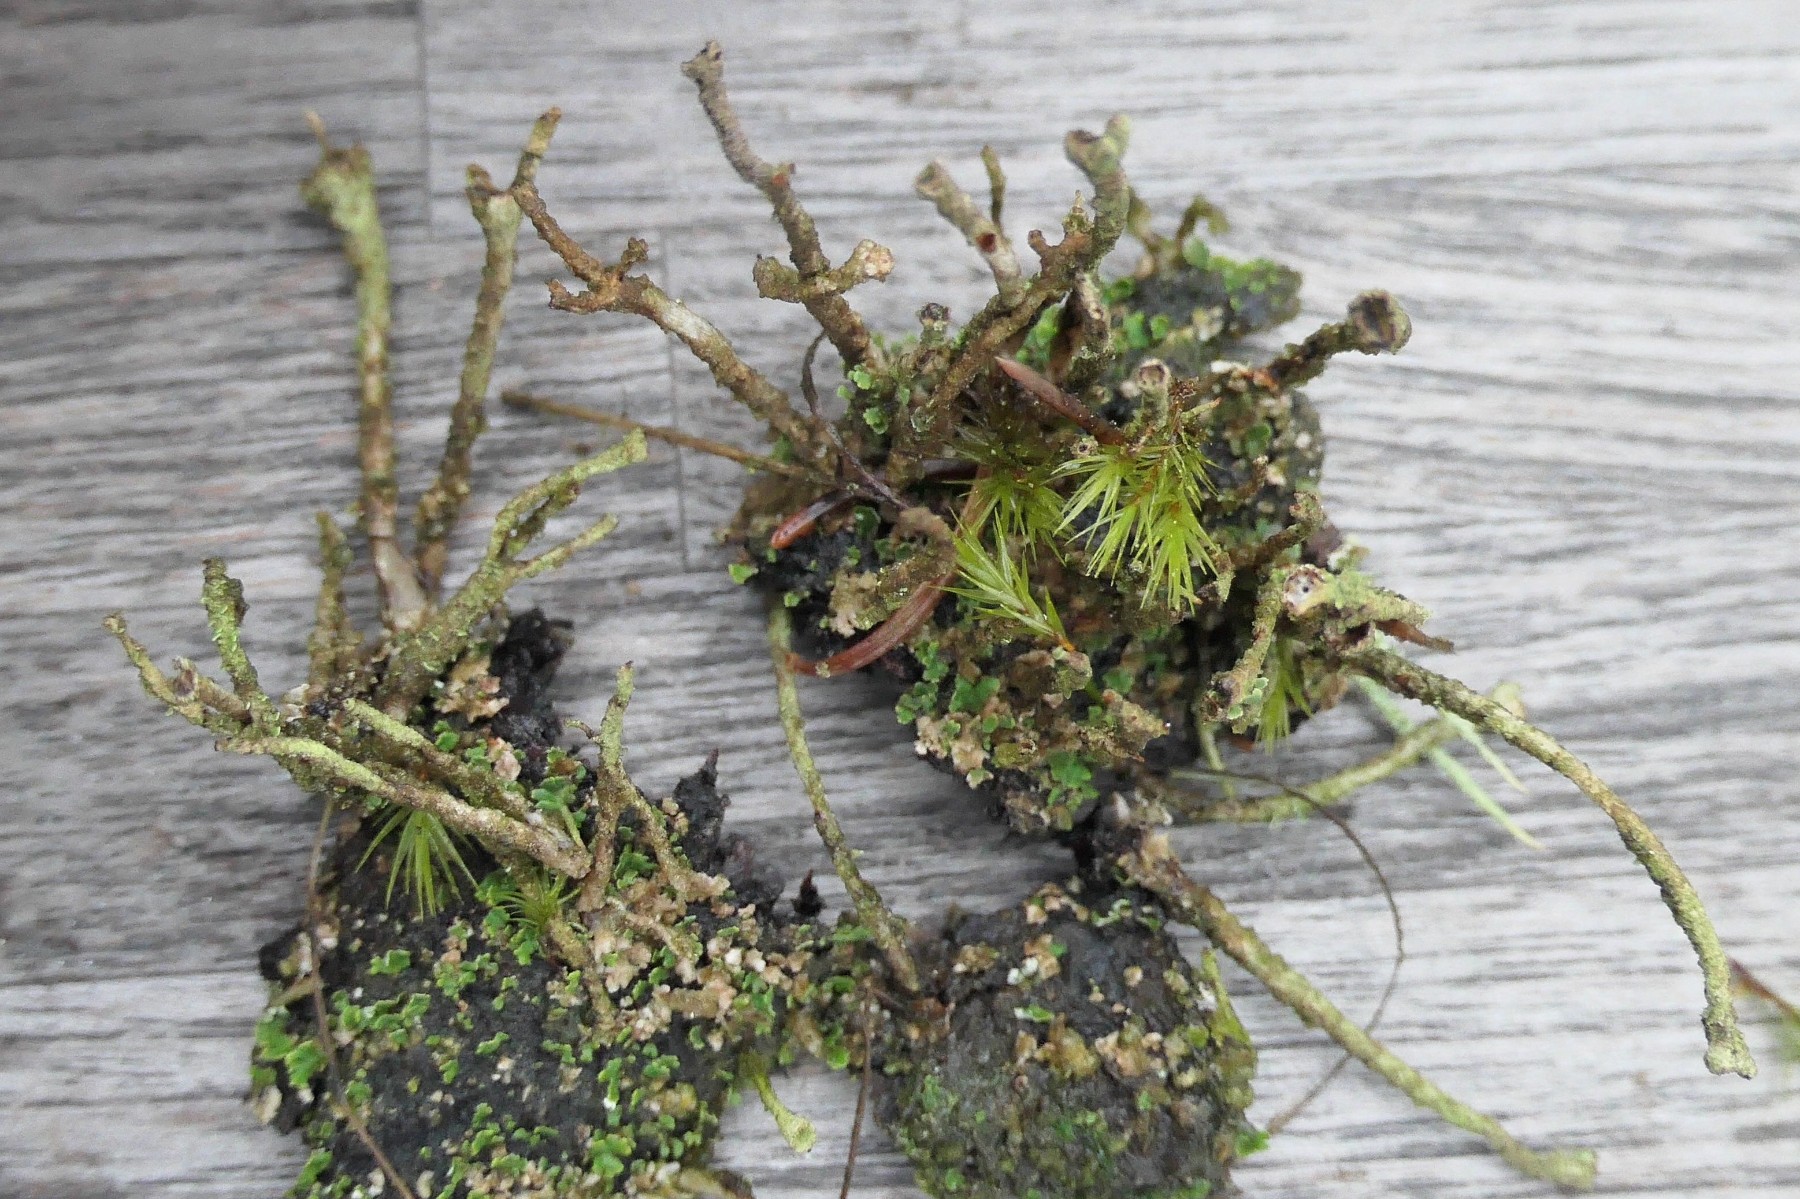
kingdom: Fungi
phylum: Ascomycota
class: Lecanoromycetes
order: Lecanorales
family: Cladoniaceae
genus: Cladonia
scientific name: Cladonia ochrochlora
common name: stød-bægerlav
